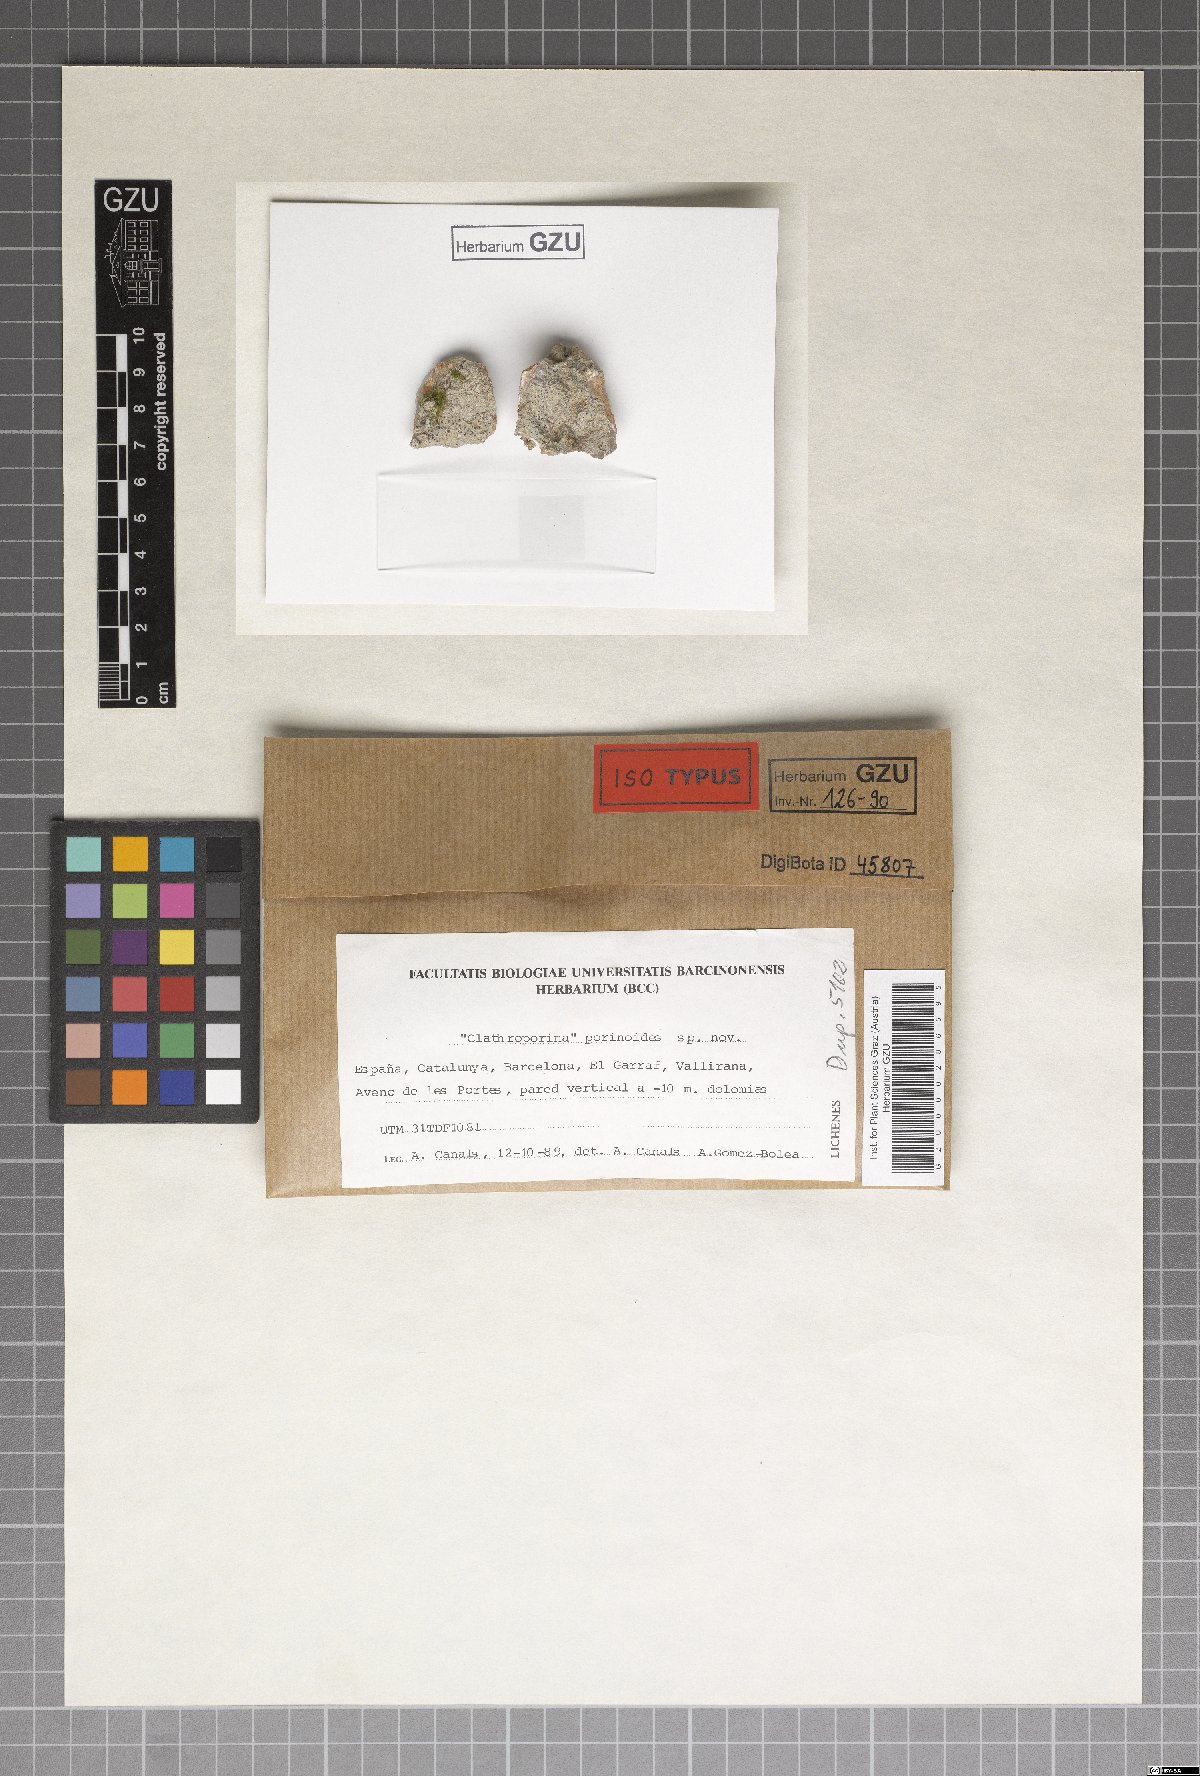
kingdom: Fungi
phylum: Ascomycota
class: Dothideomycetes
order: Strigulales
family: Strigulaceae
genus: Swinscowia
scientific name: Swinscowia porinoides
